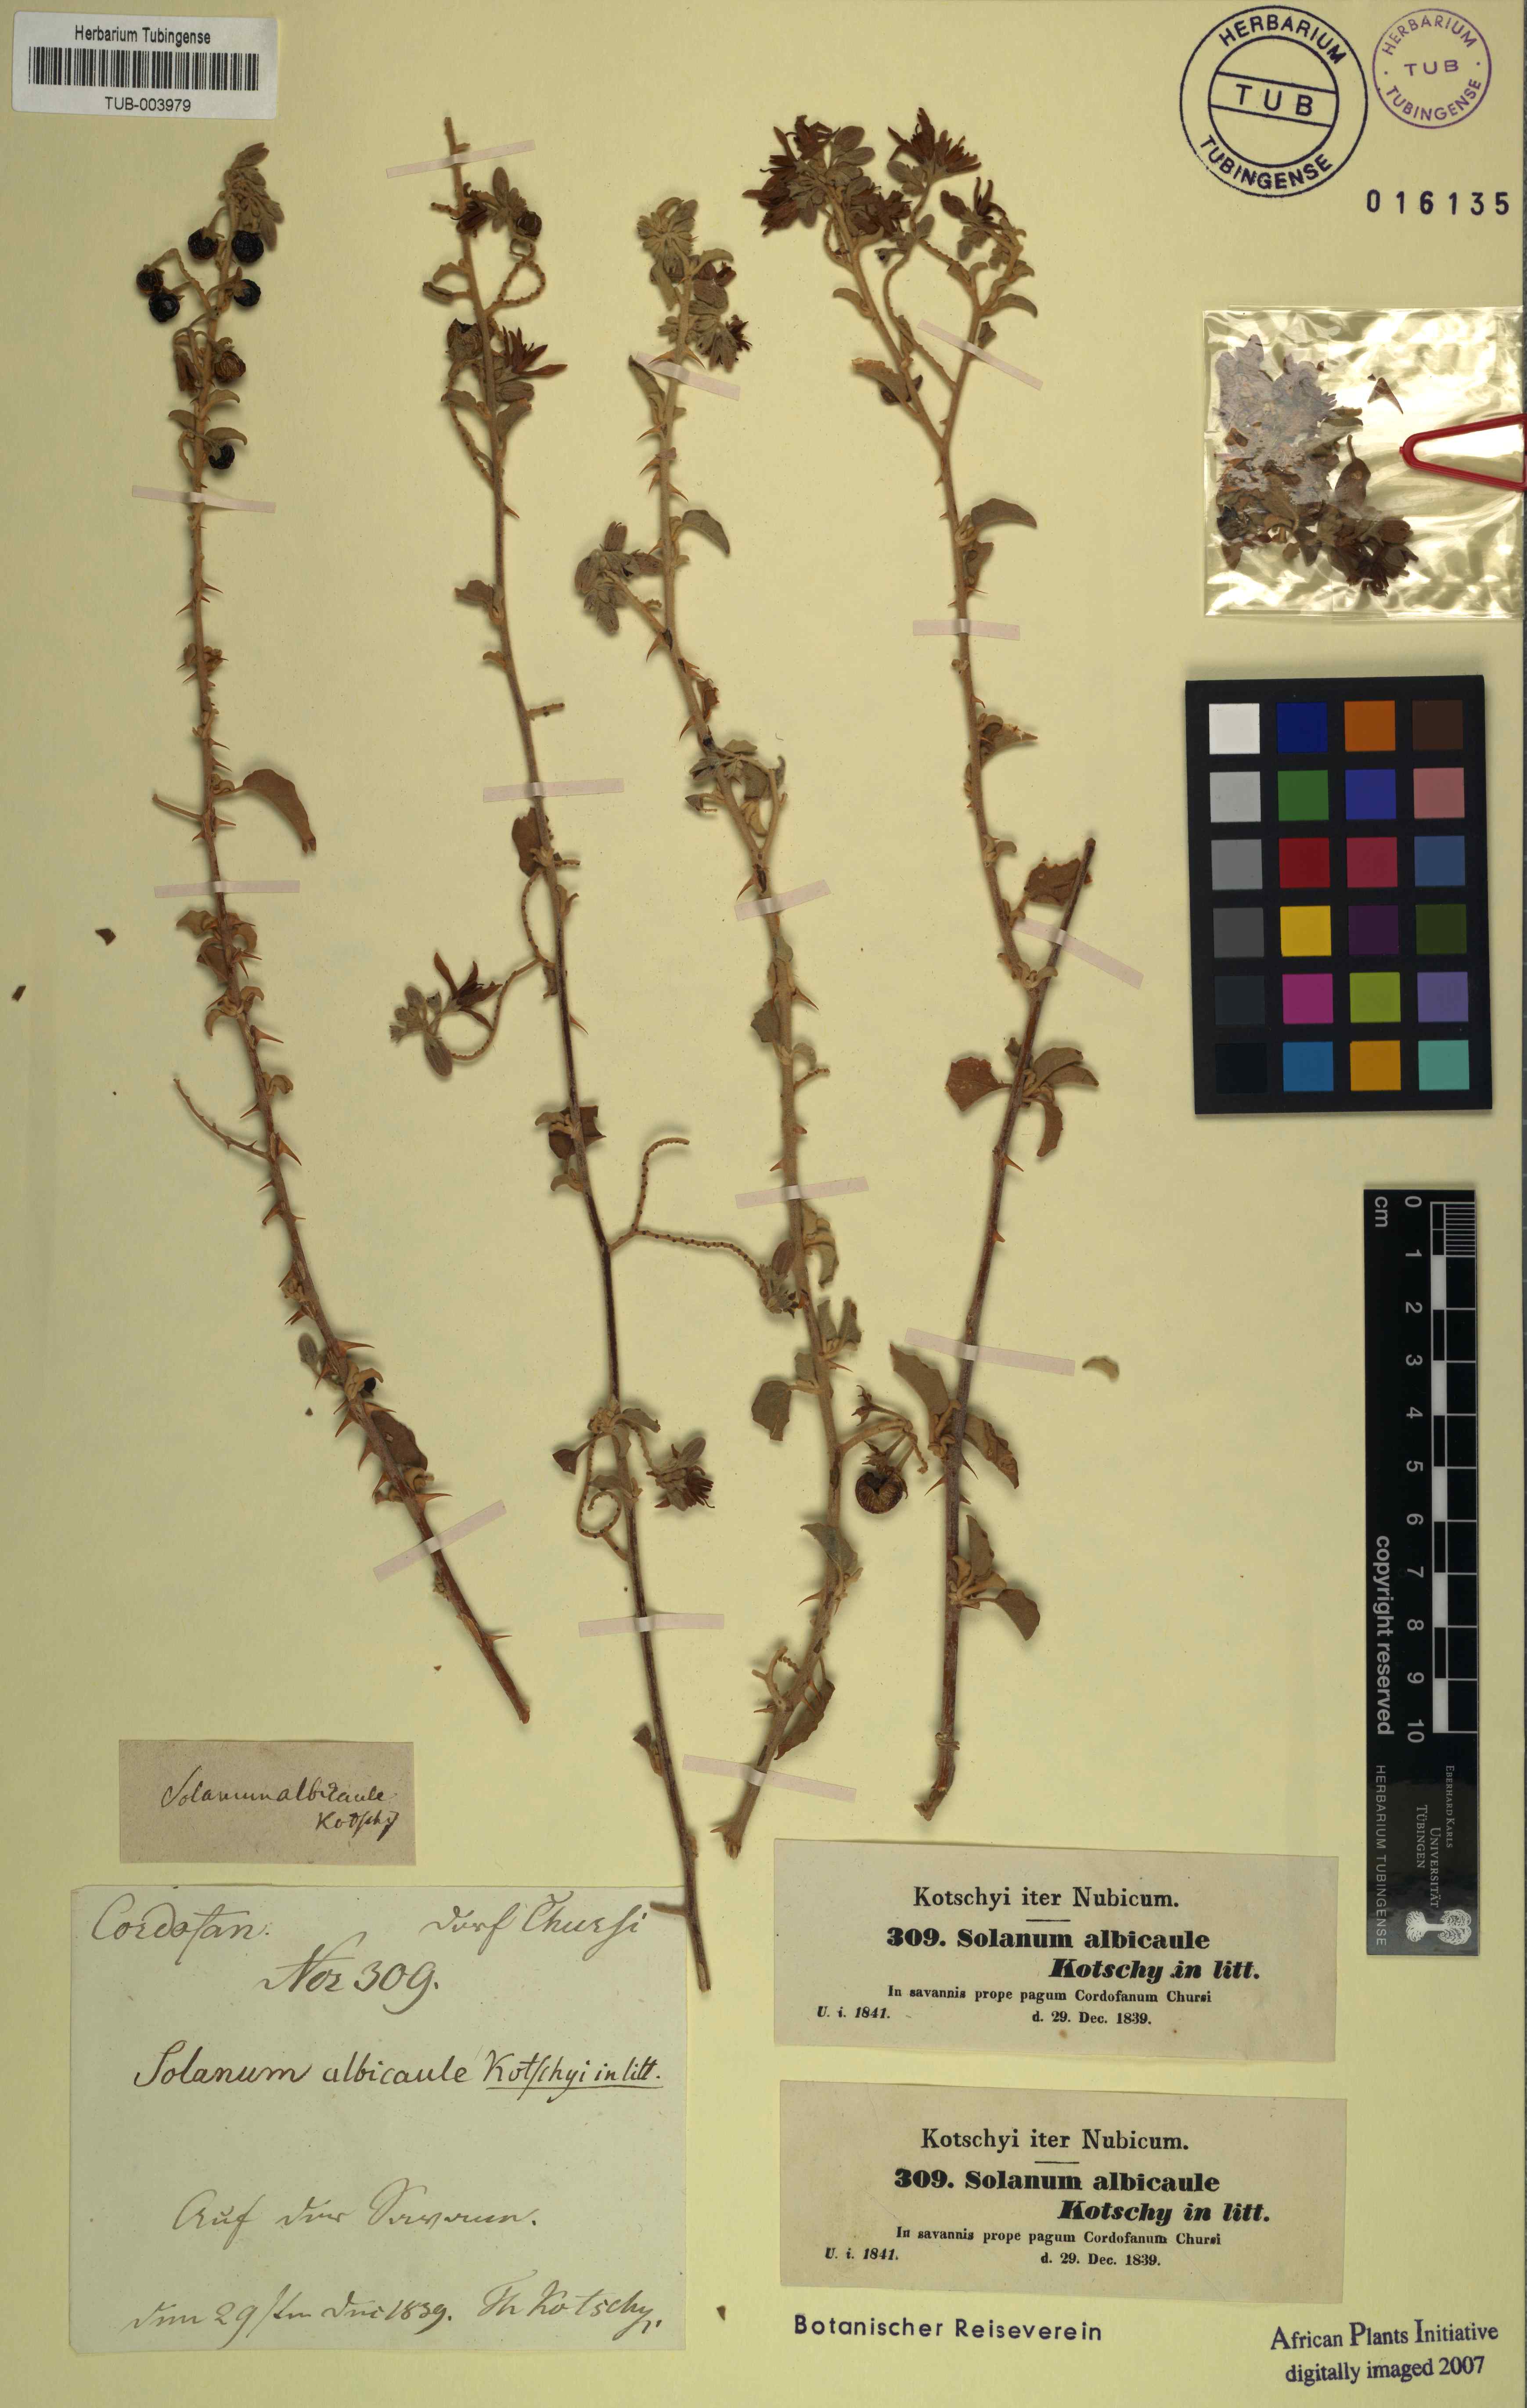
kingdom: Plantae
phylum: Tracheophyta
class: Magnoliopsida
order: Solanales
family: Solanaceae
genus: Solanum
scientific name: Solanum forsskaolii
